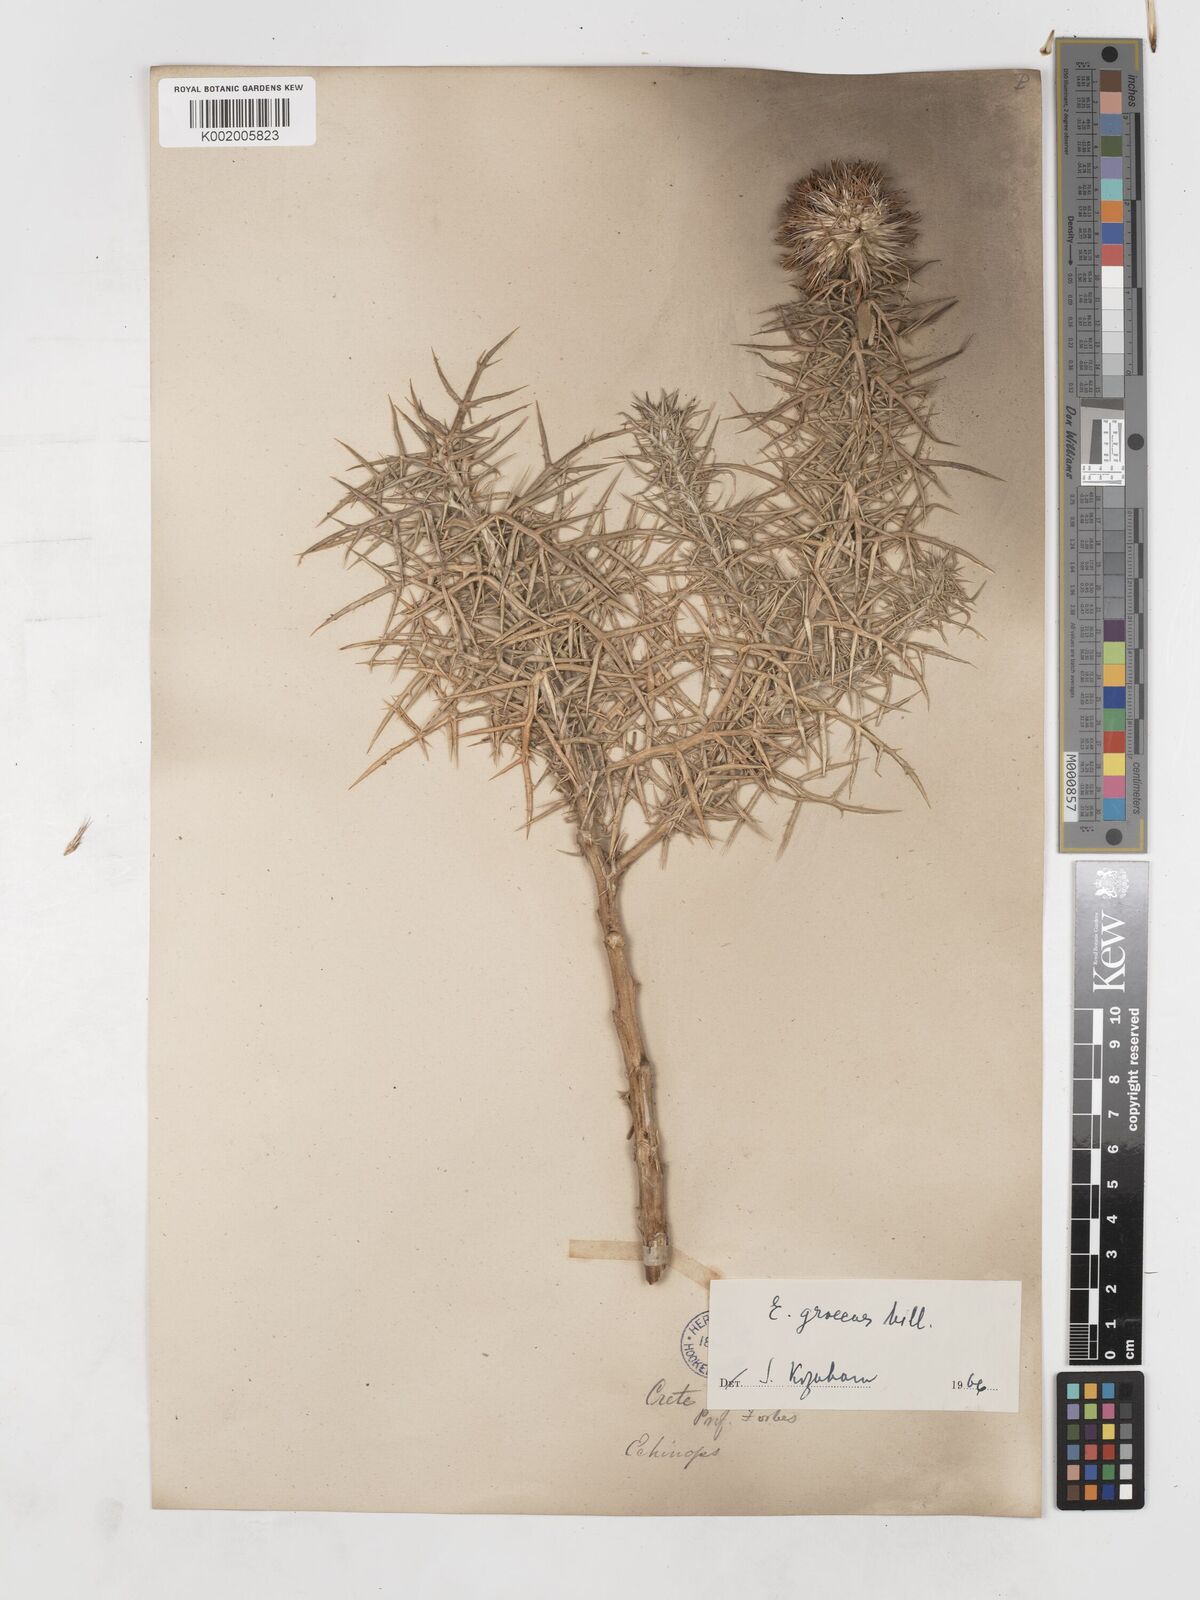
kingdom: Plantae
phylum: Tracheophyta
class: Magnoliopsida
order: Asterales
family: Asteraceae
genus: Echinops
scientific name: Echinops graecus
